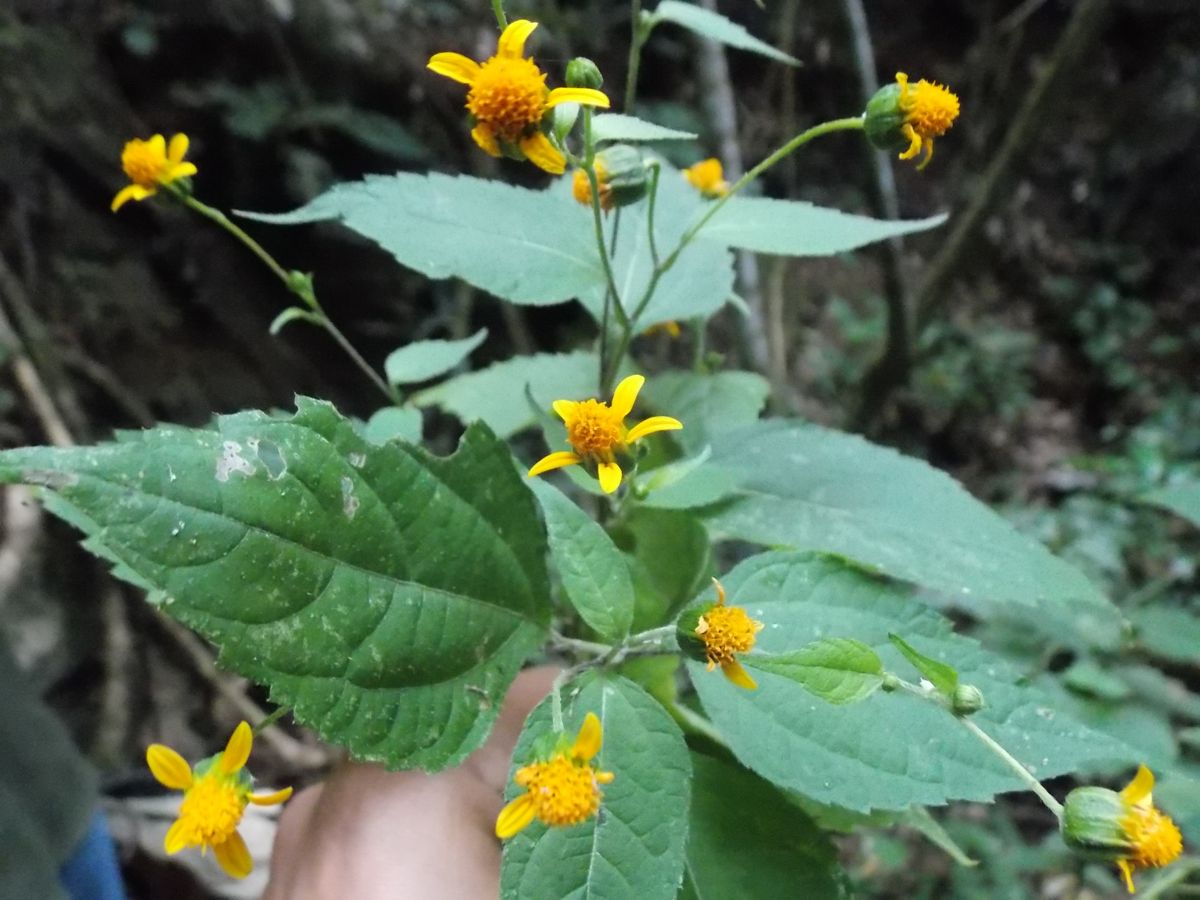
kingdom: Plantae
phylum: Tracheophyta
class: Magnoliopsida
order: Asterales
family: Asteraceae
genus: Hymenostephium
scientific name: Hymenostephium cordatum
